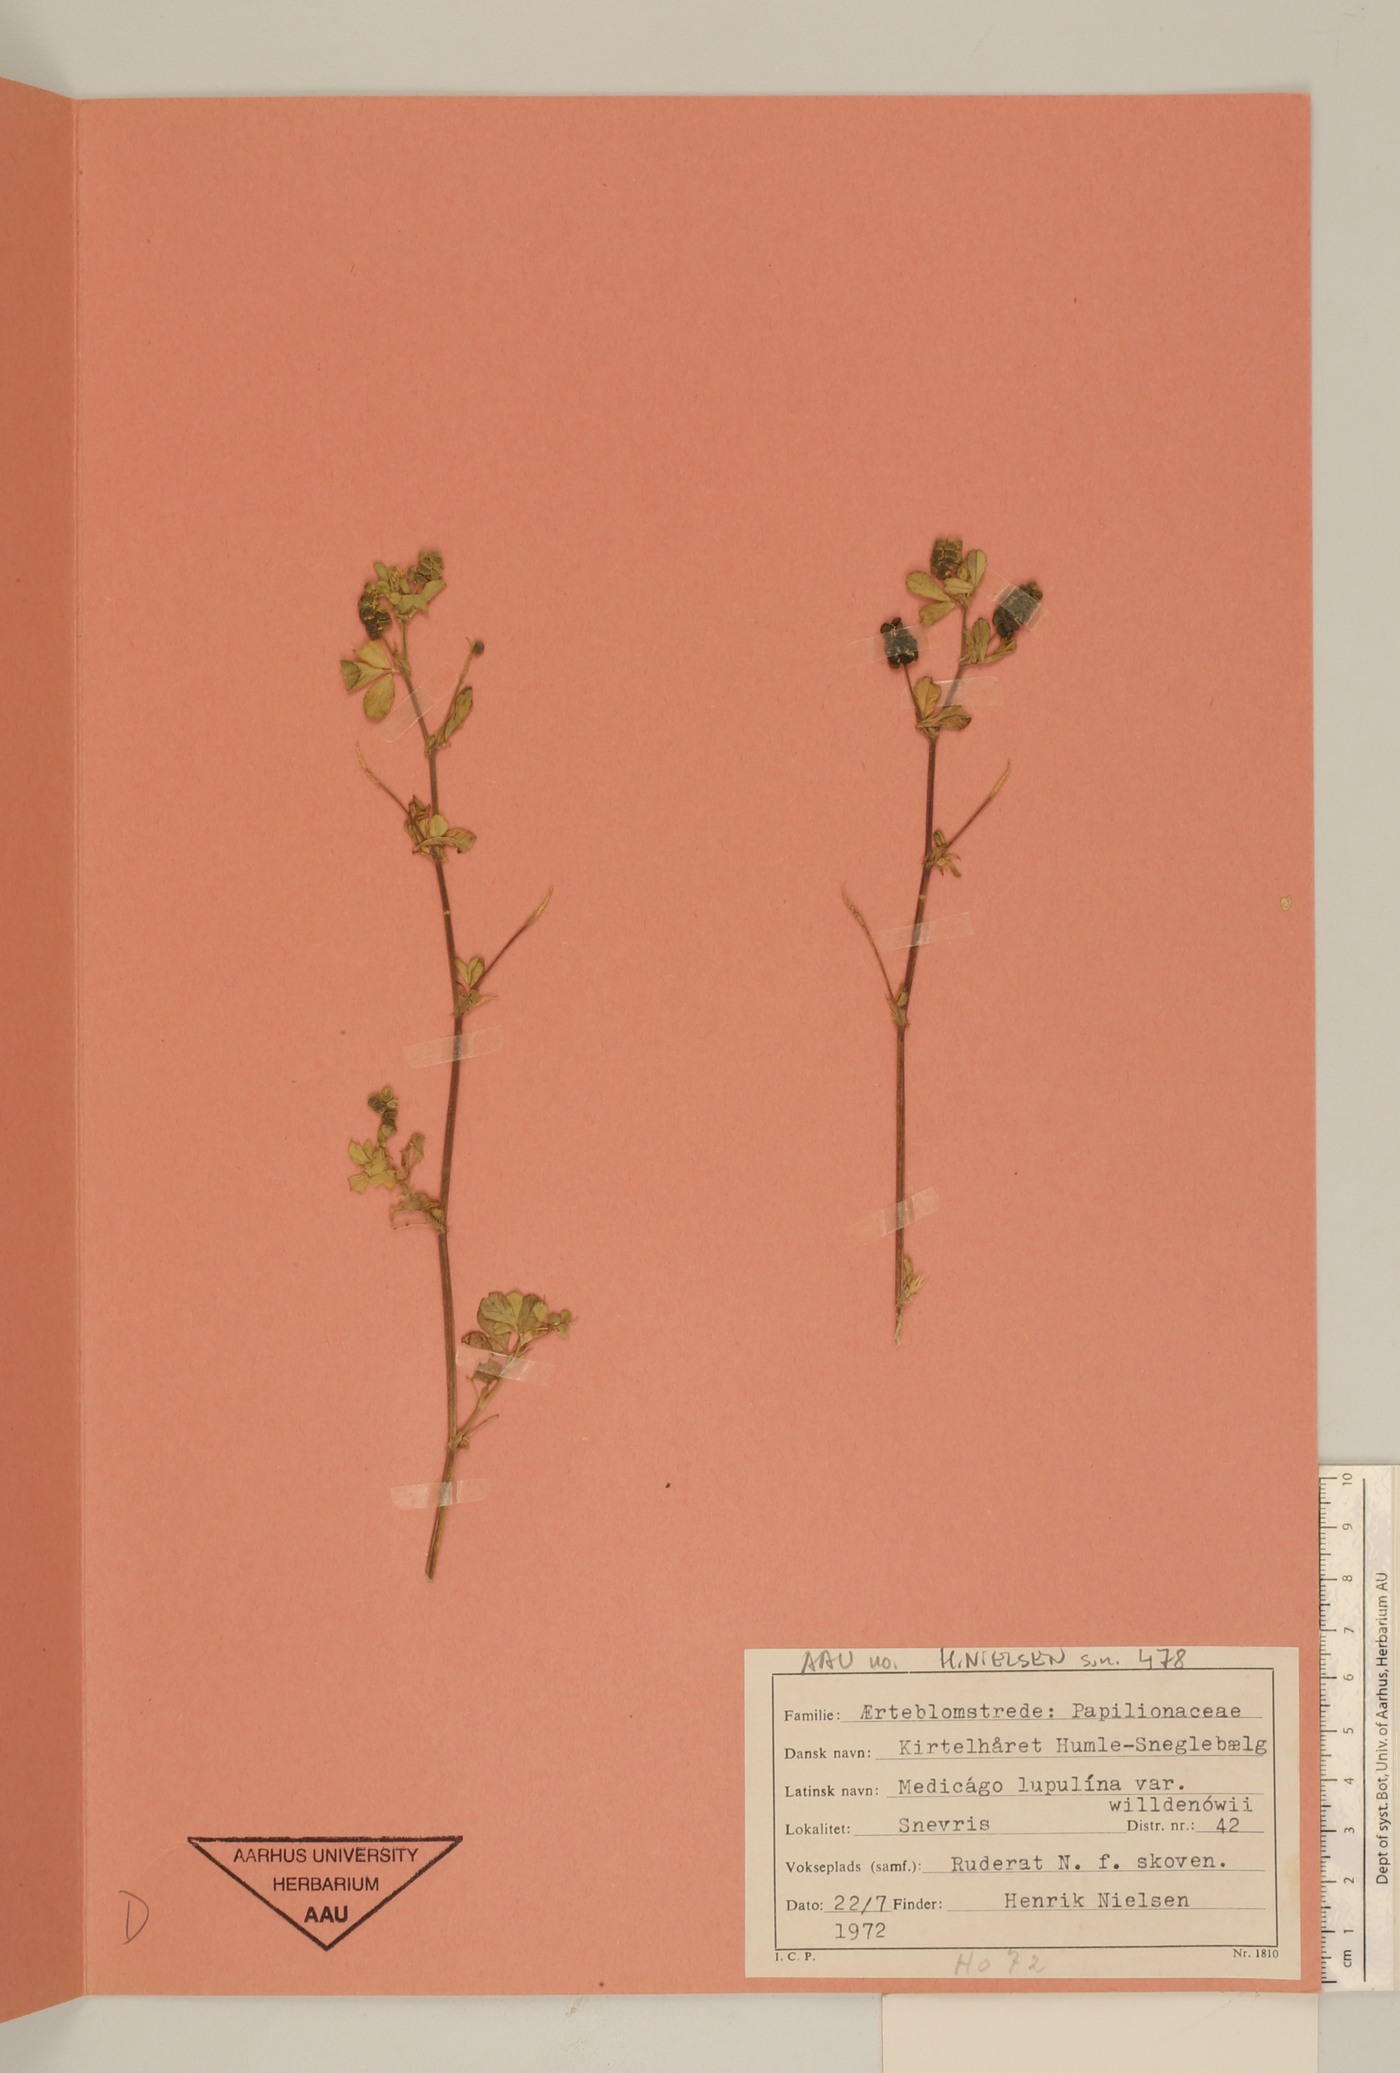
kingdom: Plantae
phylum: Tracheophyta
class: Magnoliopsida
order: Fabales
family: Fabaceae
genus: Medicago
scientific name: Medicago lupulina
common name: Black medick
